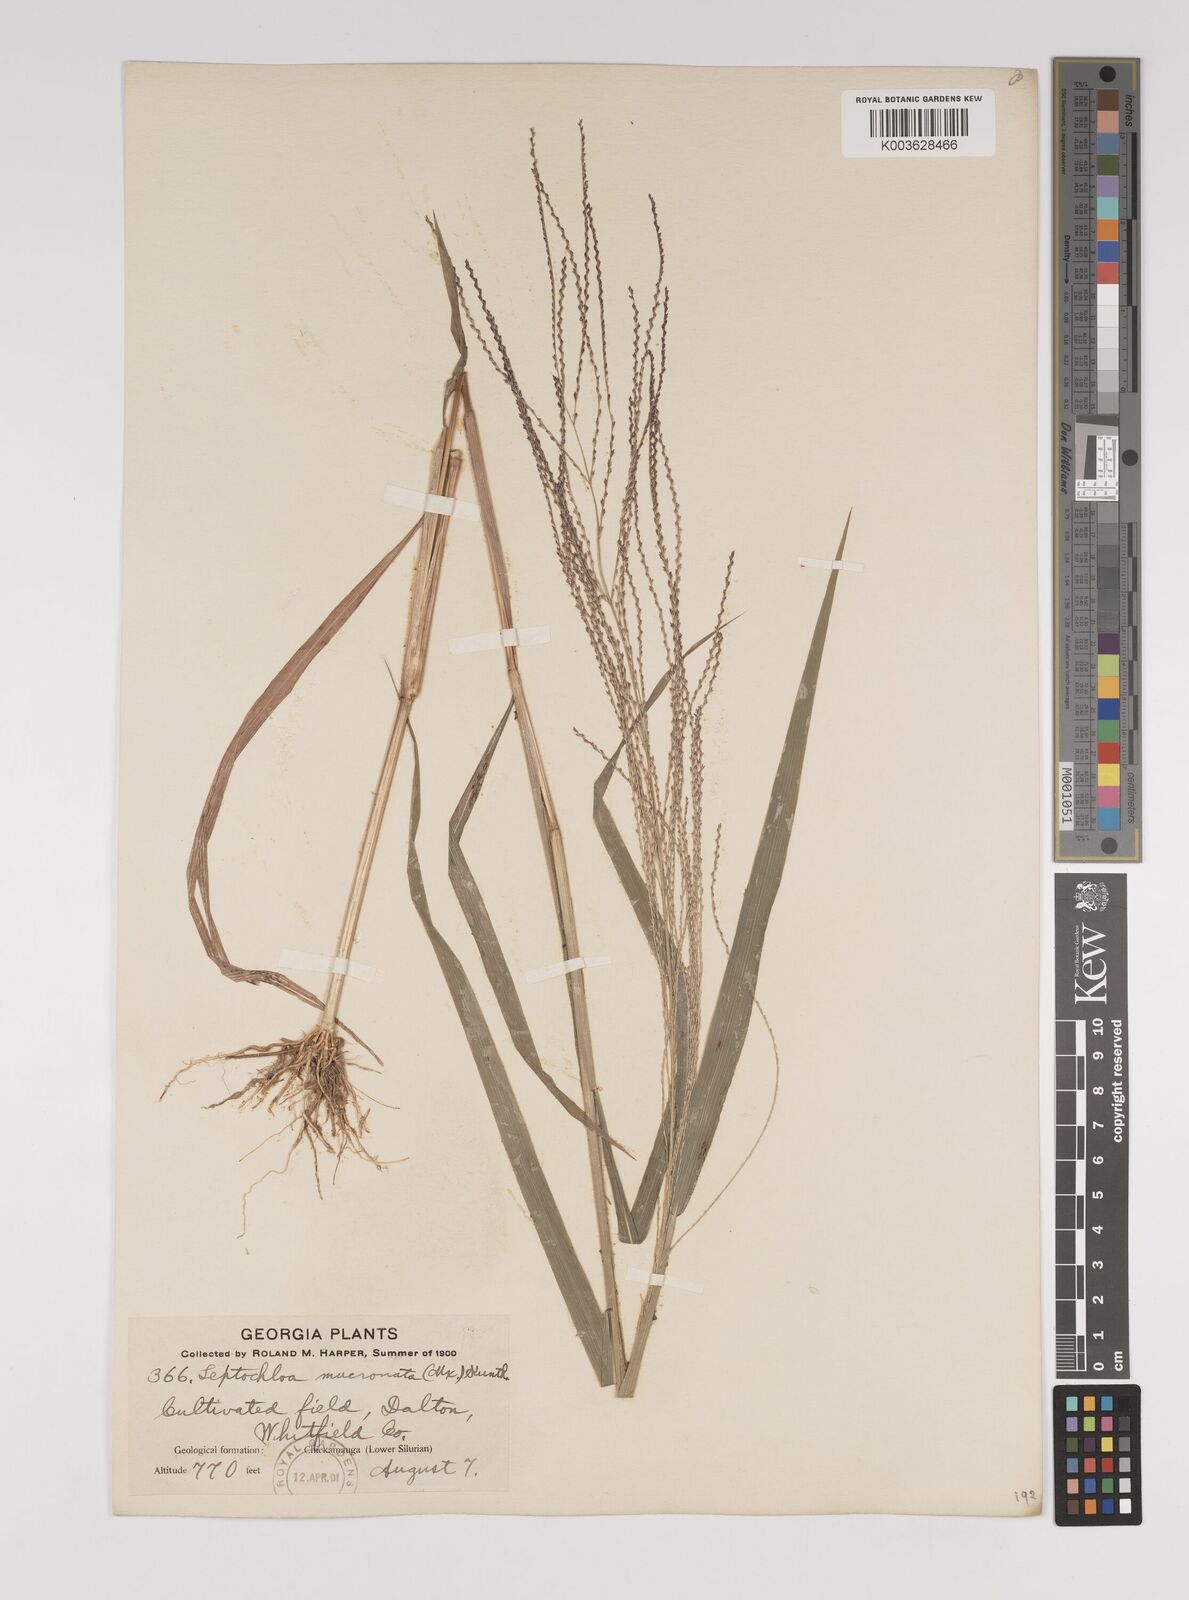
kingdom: Plantae
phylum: Tracheophyta
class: Liliopsida
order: Poales
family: Poaceae
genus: Leptochloa
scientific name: Leptochloa panicea
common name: Mucronate sprangletop
